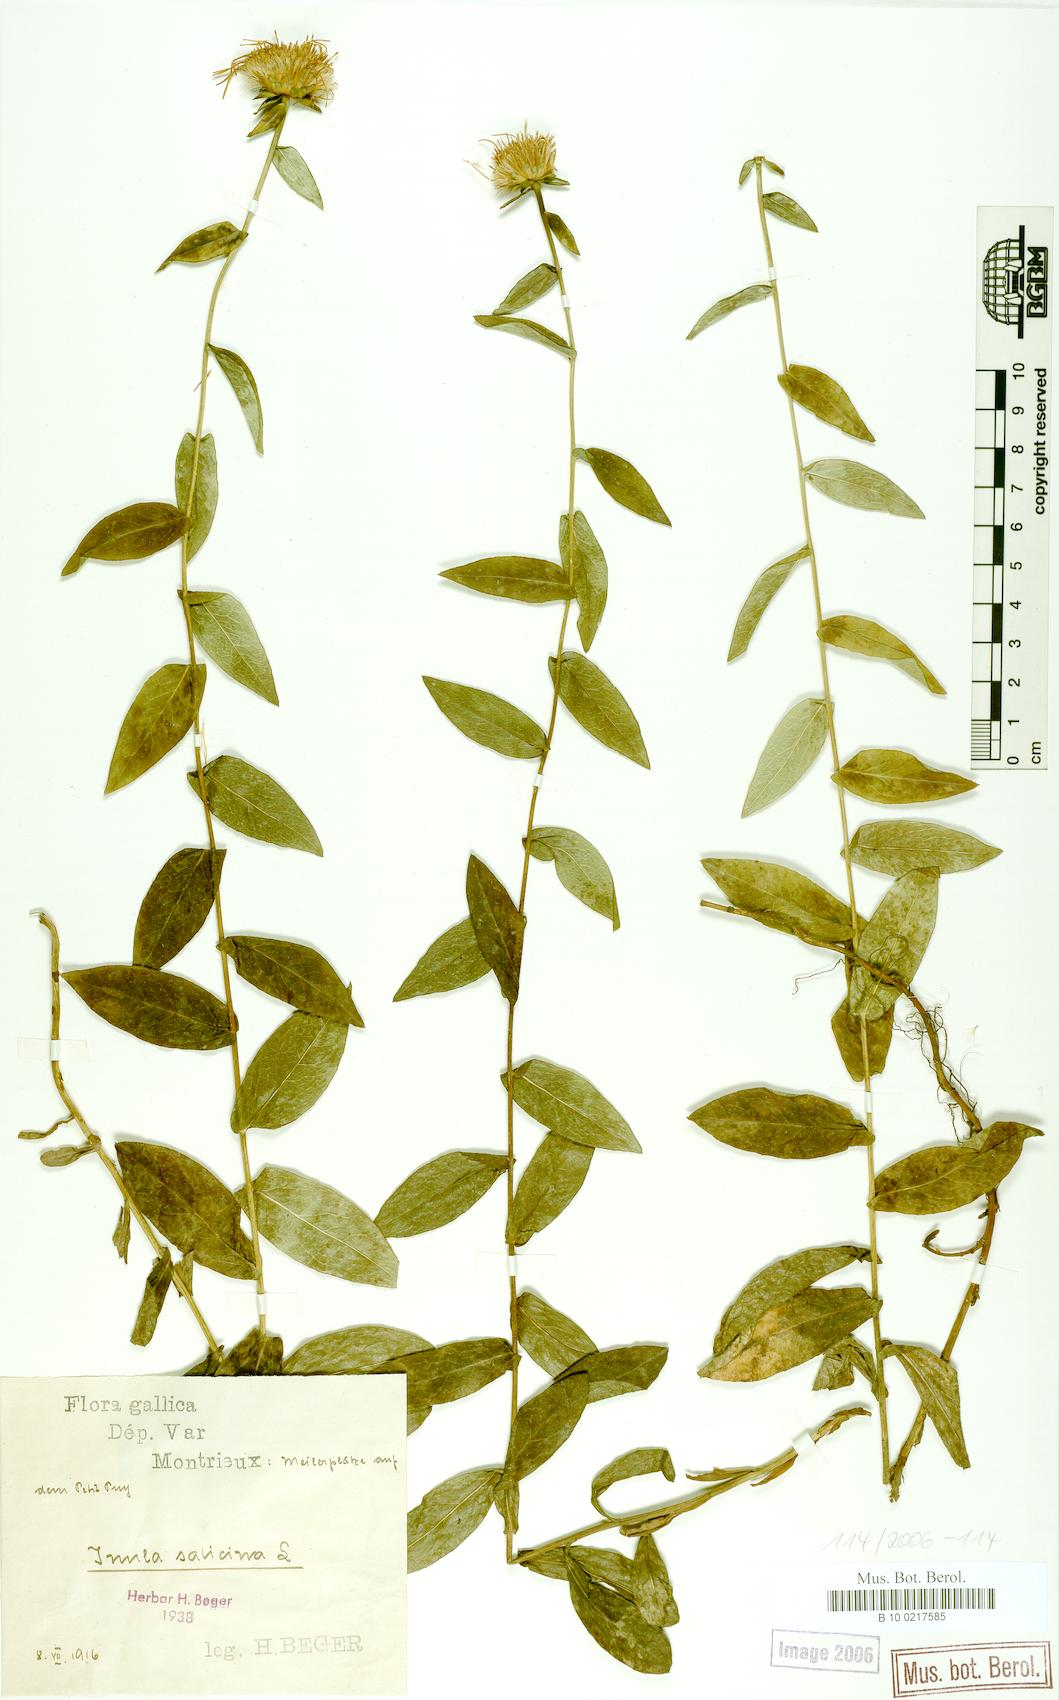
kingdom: Plantae
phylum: Tracheophyta
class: Magnoliopsida
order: Asterales
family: Asteraceae
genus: Pentanema
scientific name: Pentanema salicinum
